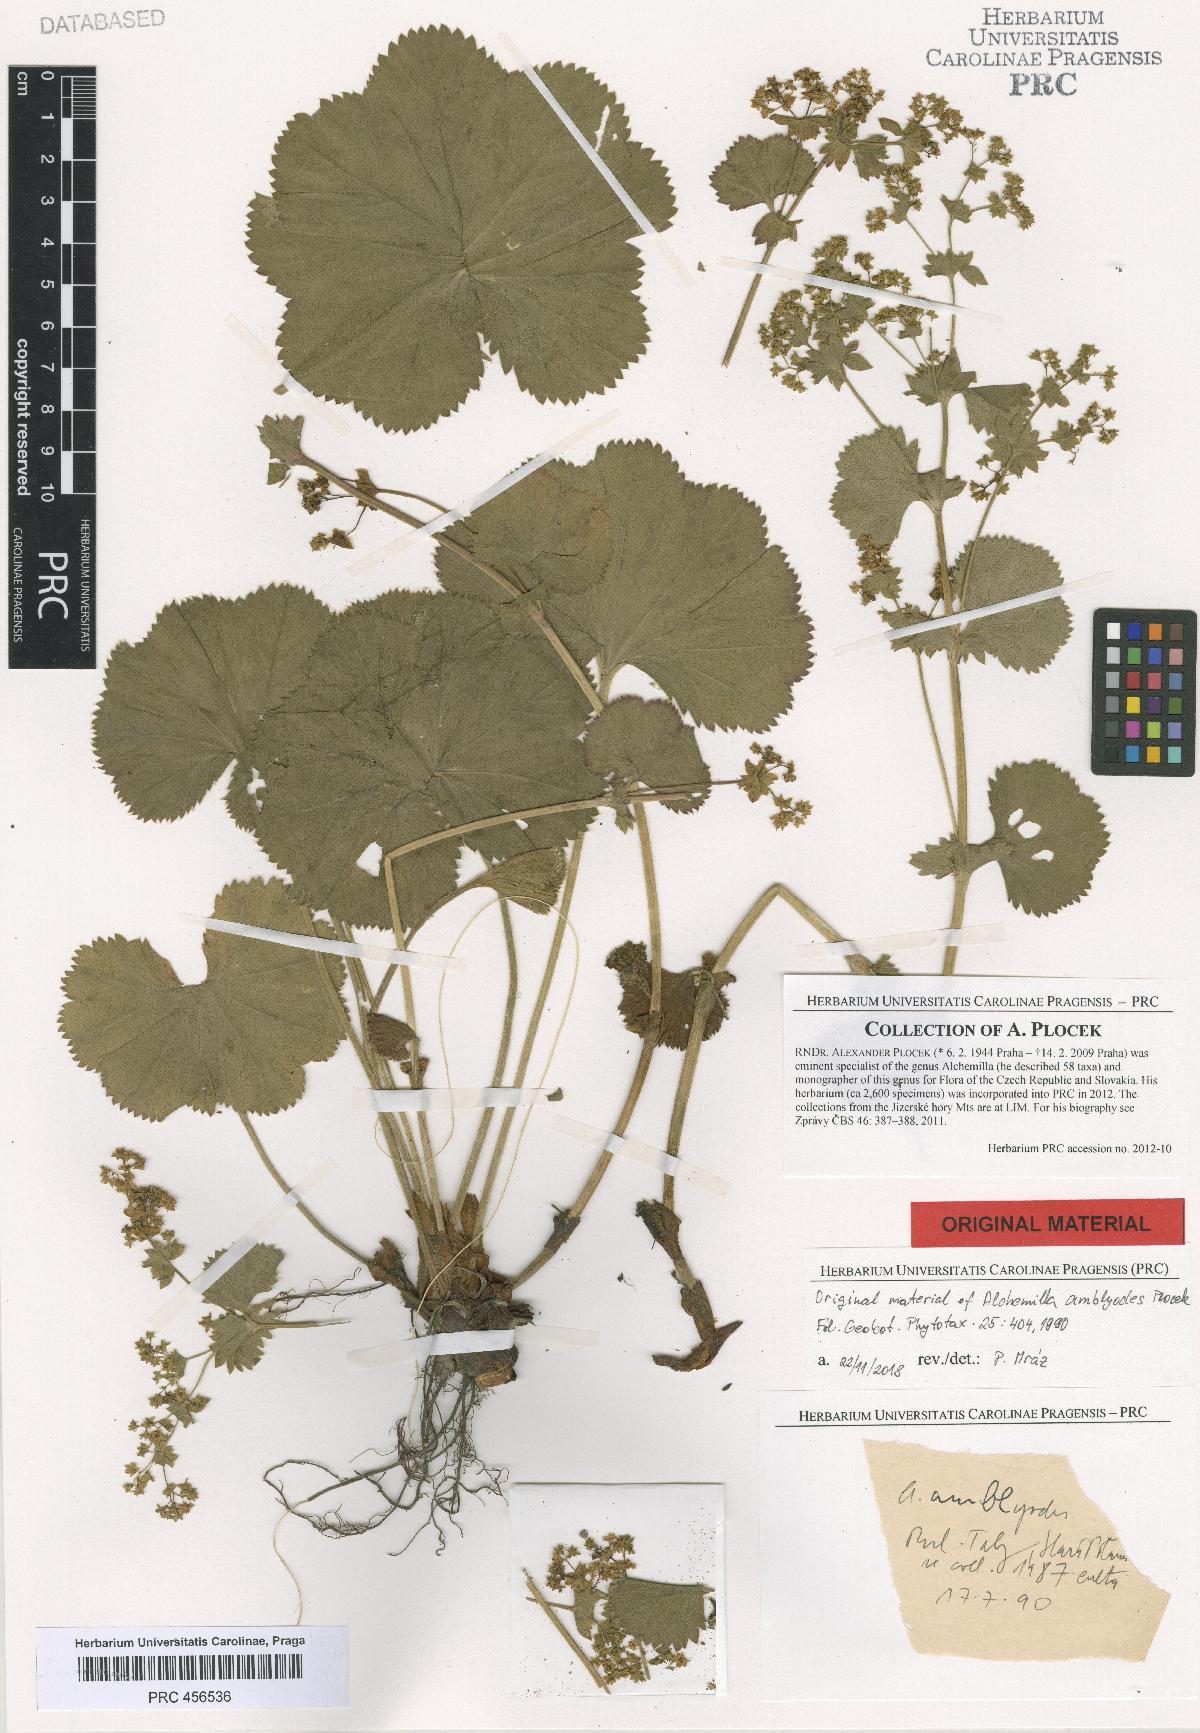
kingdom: Plantae
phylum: Tracheophyta
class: Magnoliopsida
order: Rosales
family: Rosaceae
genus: Alchemilla
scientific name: Alchemilla amblyodes
